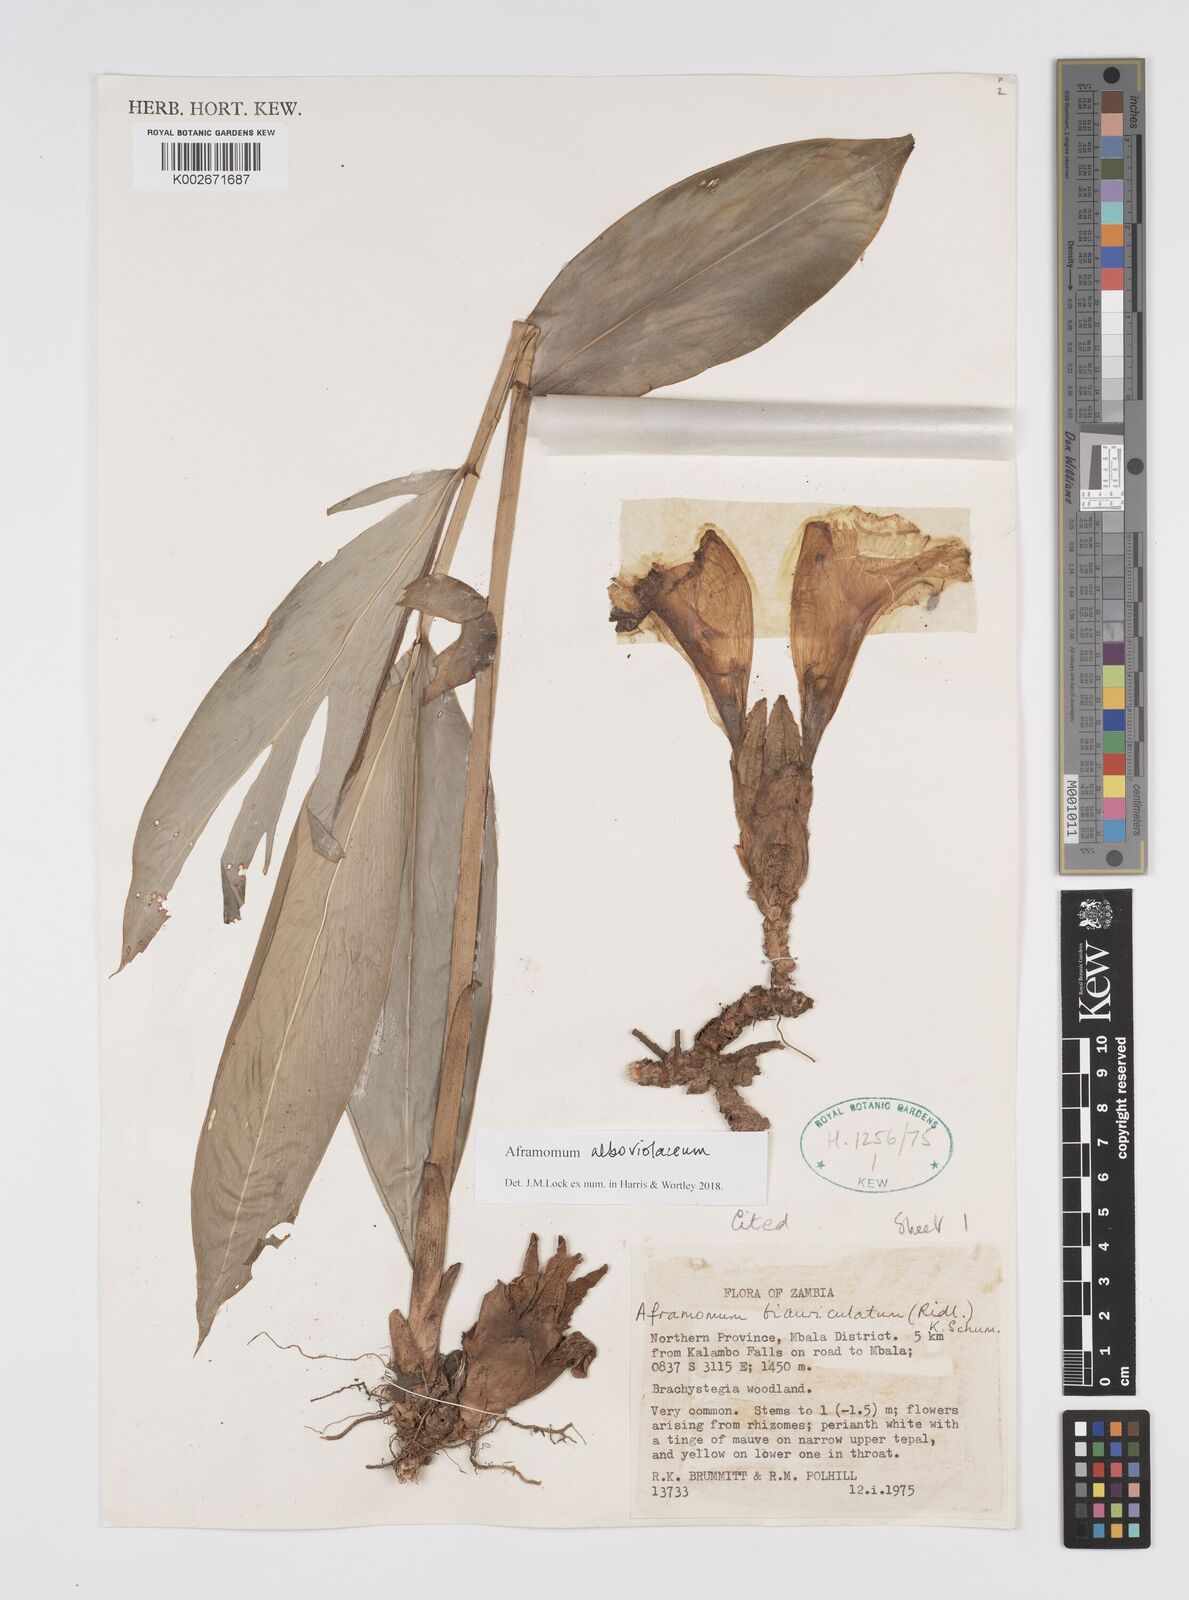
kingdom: Plantae
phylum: Tracheophyta
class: Liliopsida
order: Zingiberales
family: Zingiberaceae
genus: Aframomum
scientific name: Aframomum alboviolaceum
